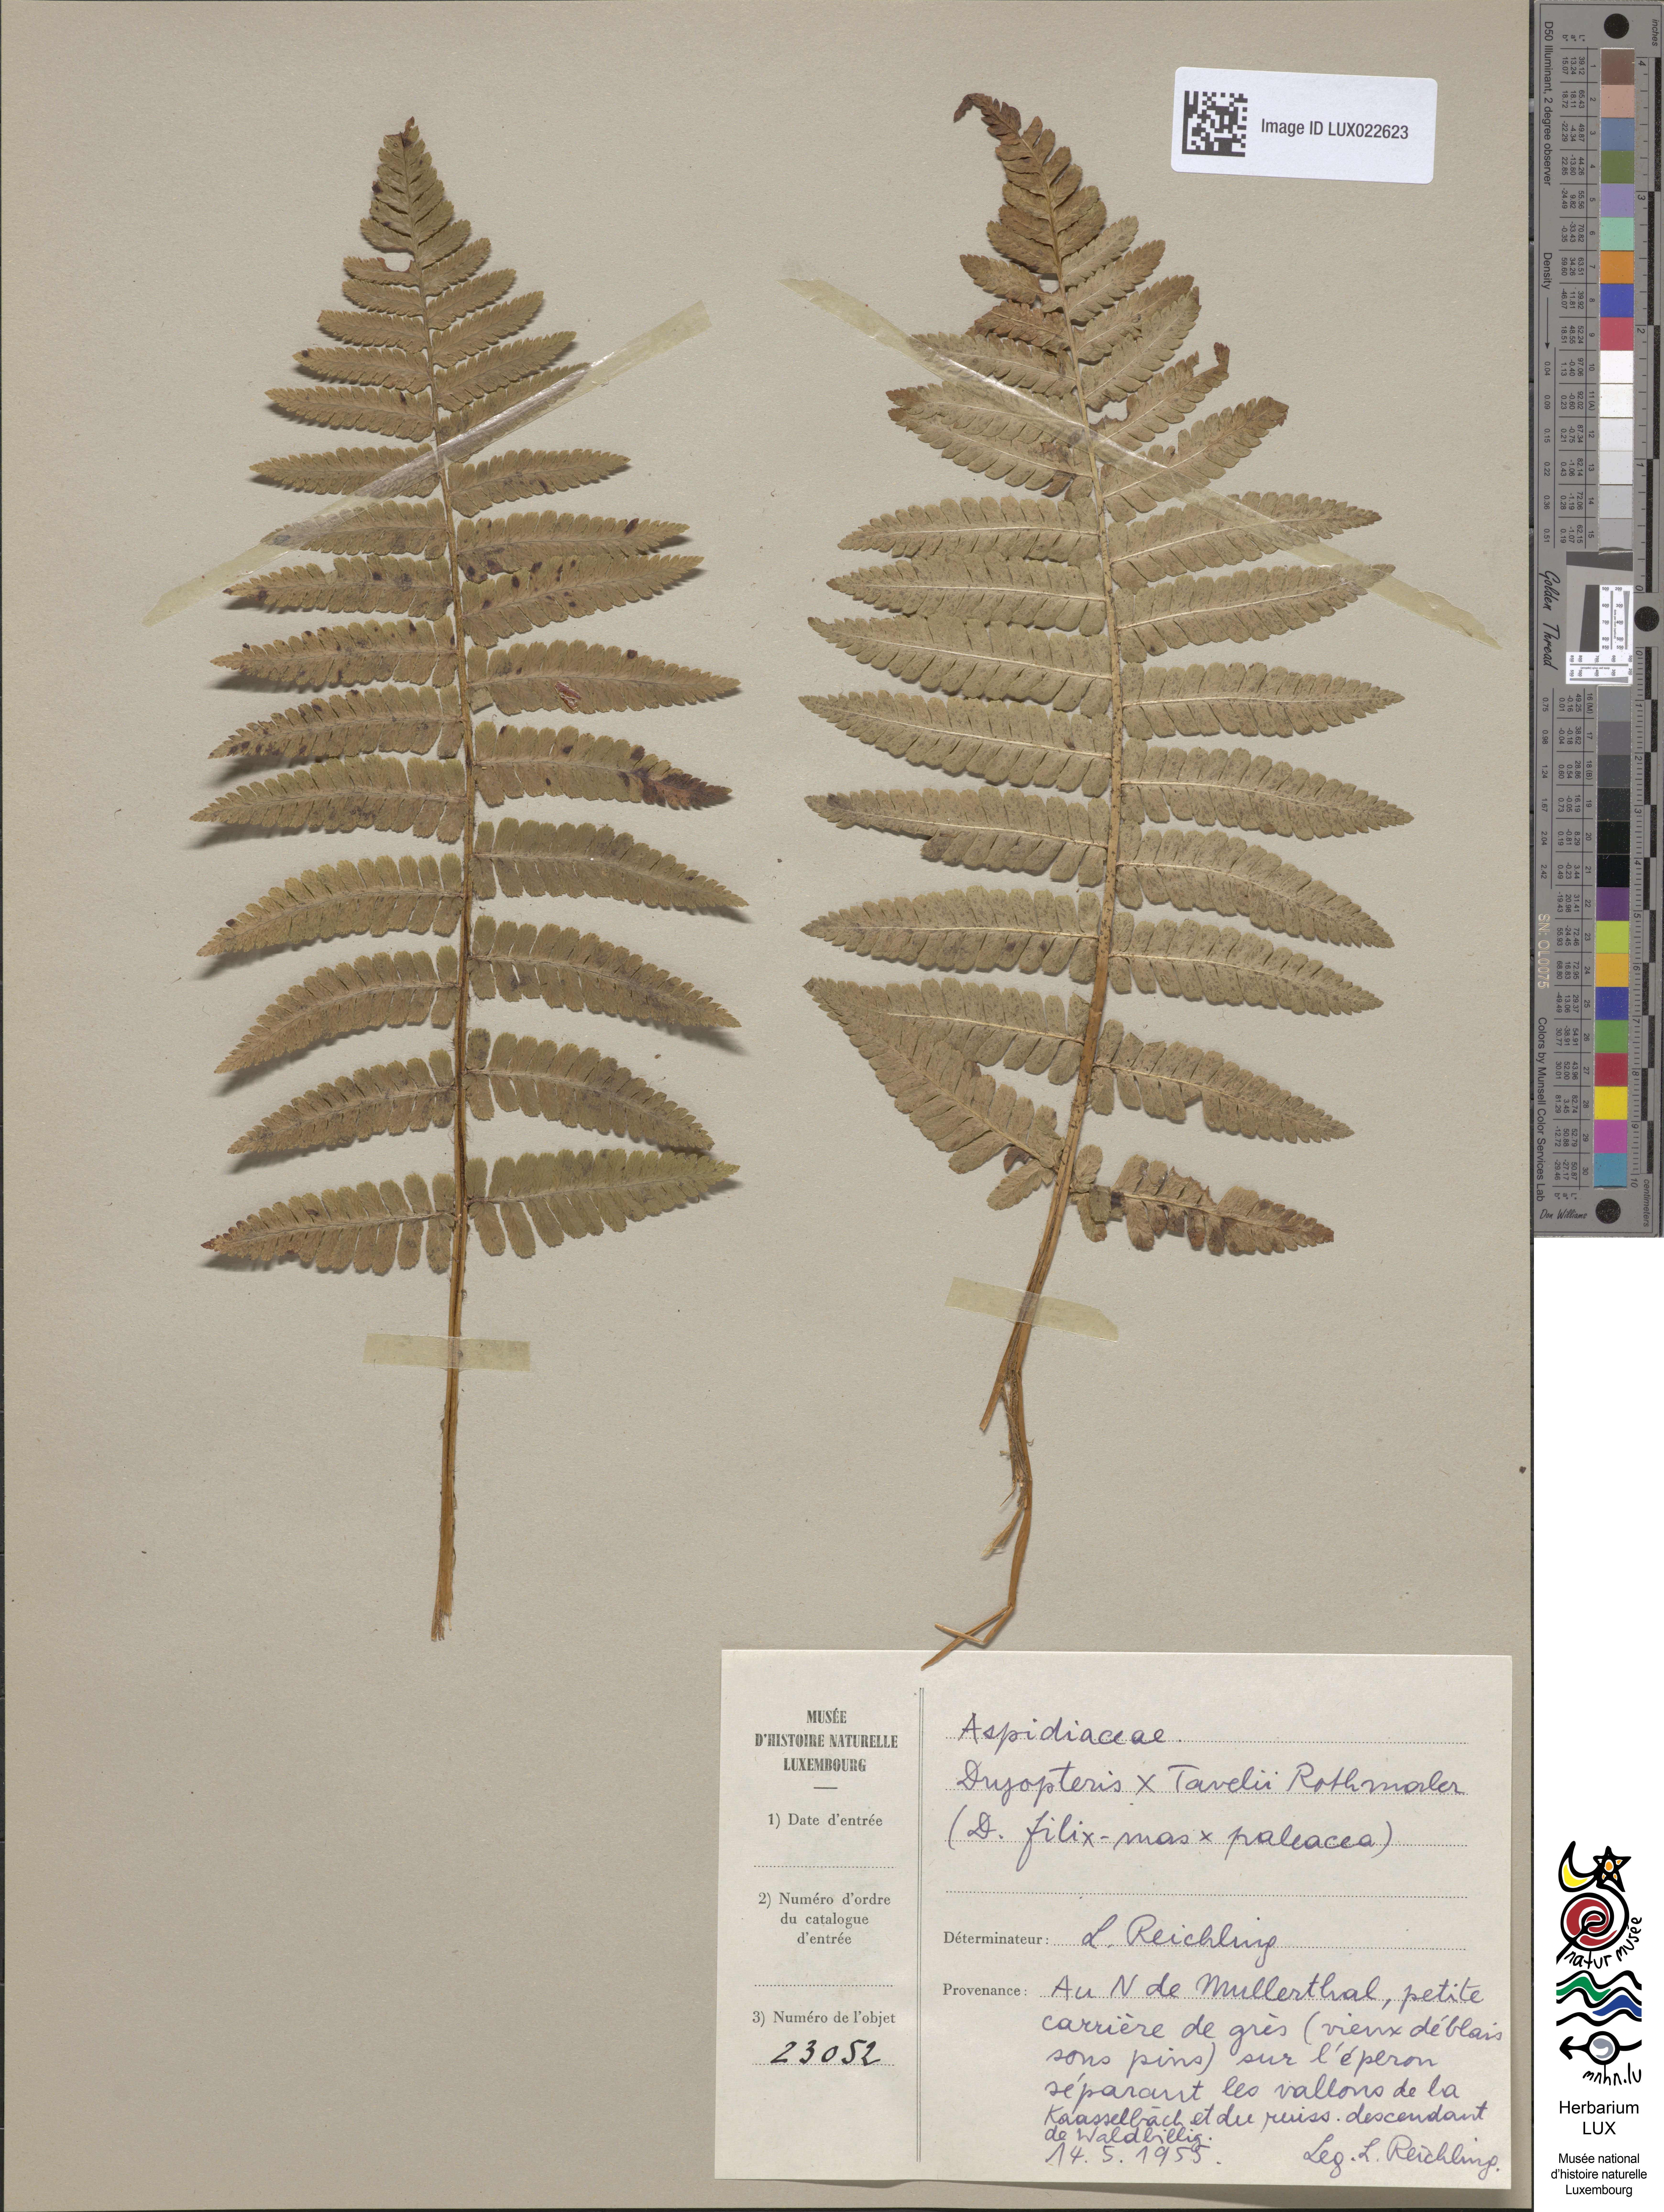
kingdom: Plantae
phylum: Tracheophyta
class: Polypodiopsida
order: Polypodiales
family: Dryopteridaceae
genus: Dryopteris
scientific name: Dryopteris borreri
